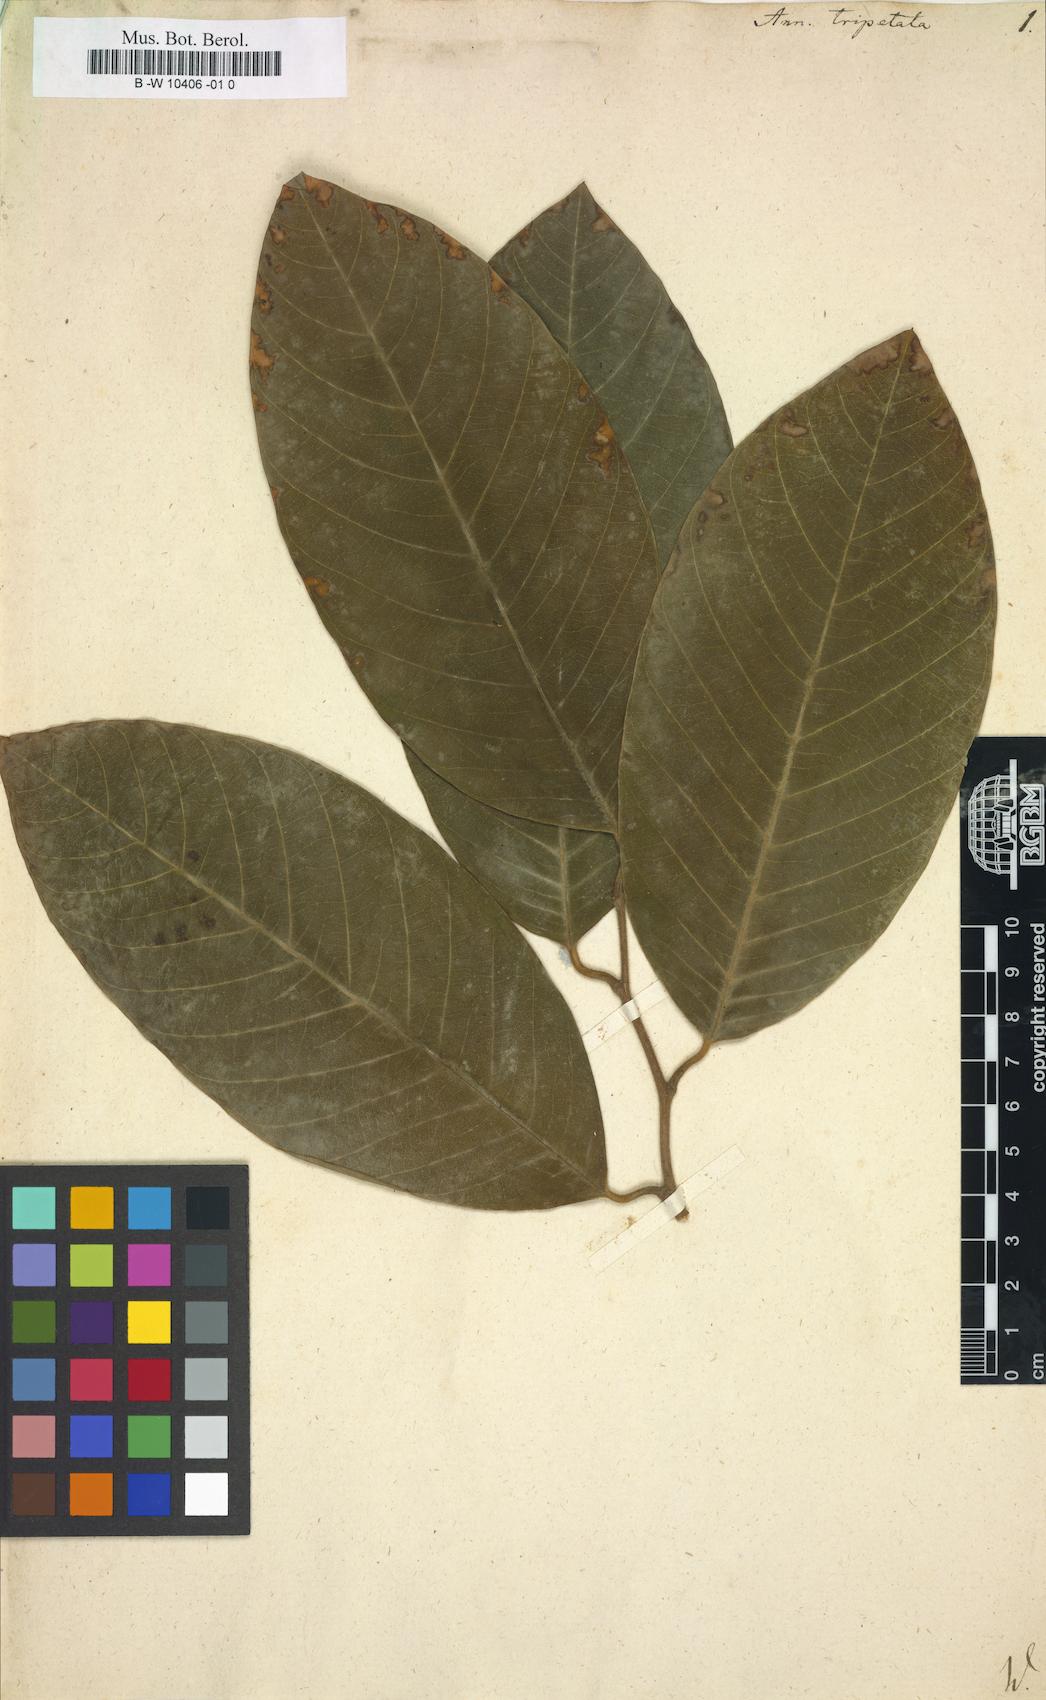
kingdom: Plantae
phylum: Tracheophyta
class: Magnoliopsida
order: Magnoliales
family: Annonaceae
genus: Annona
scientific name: Annona cherimola
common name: Cherimoya
